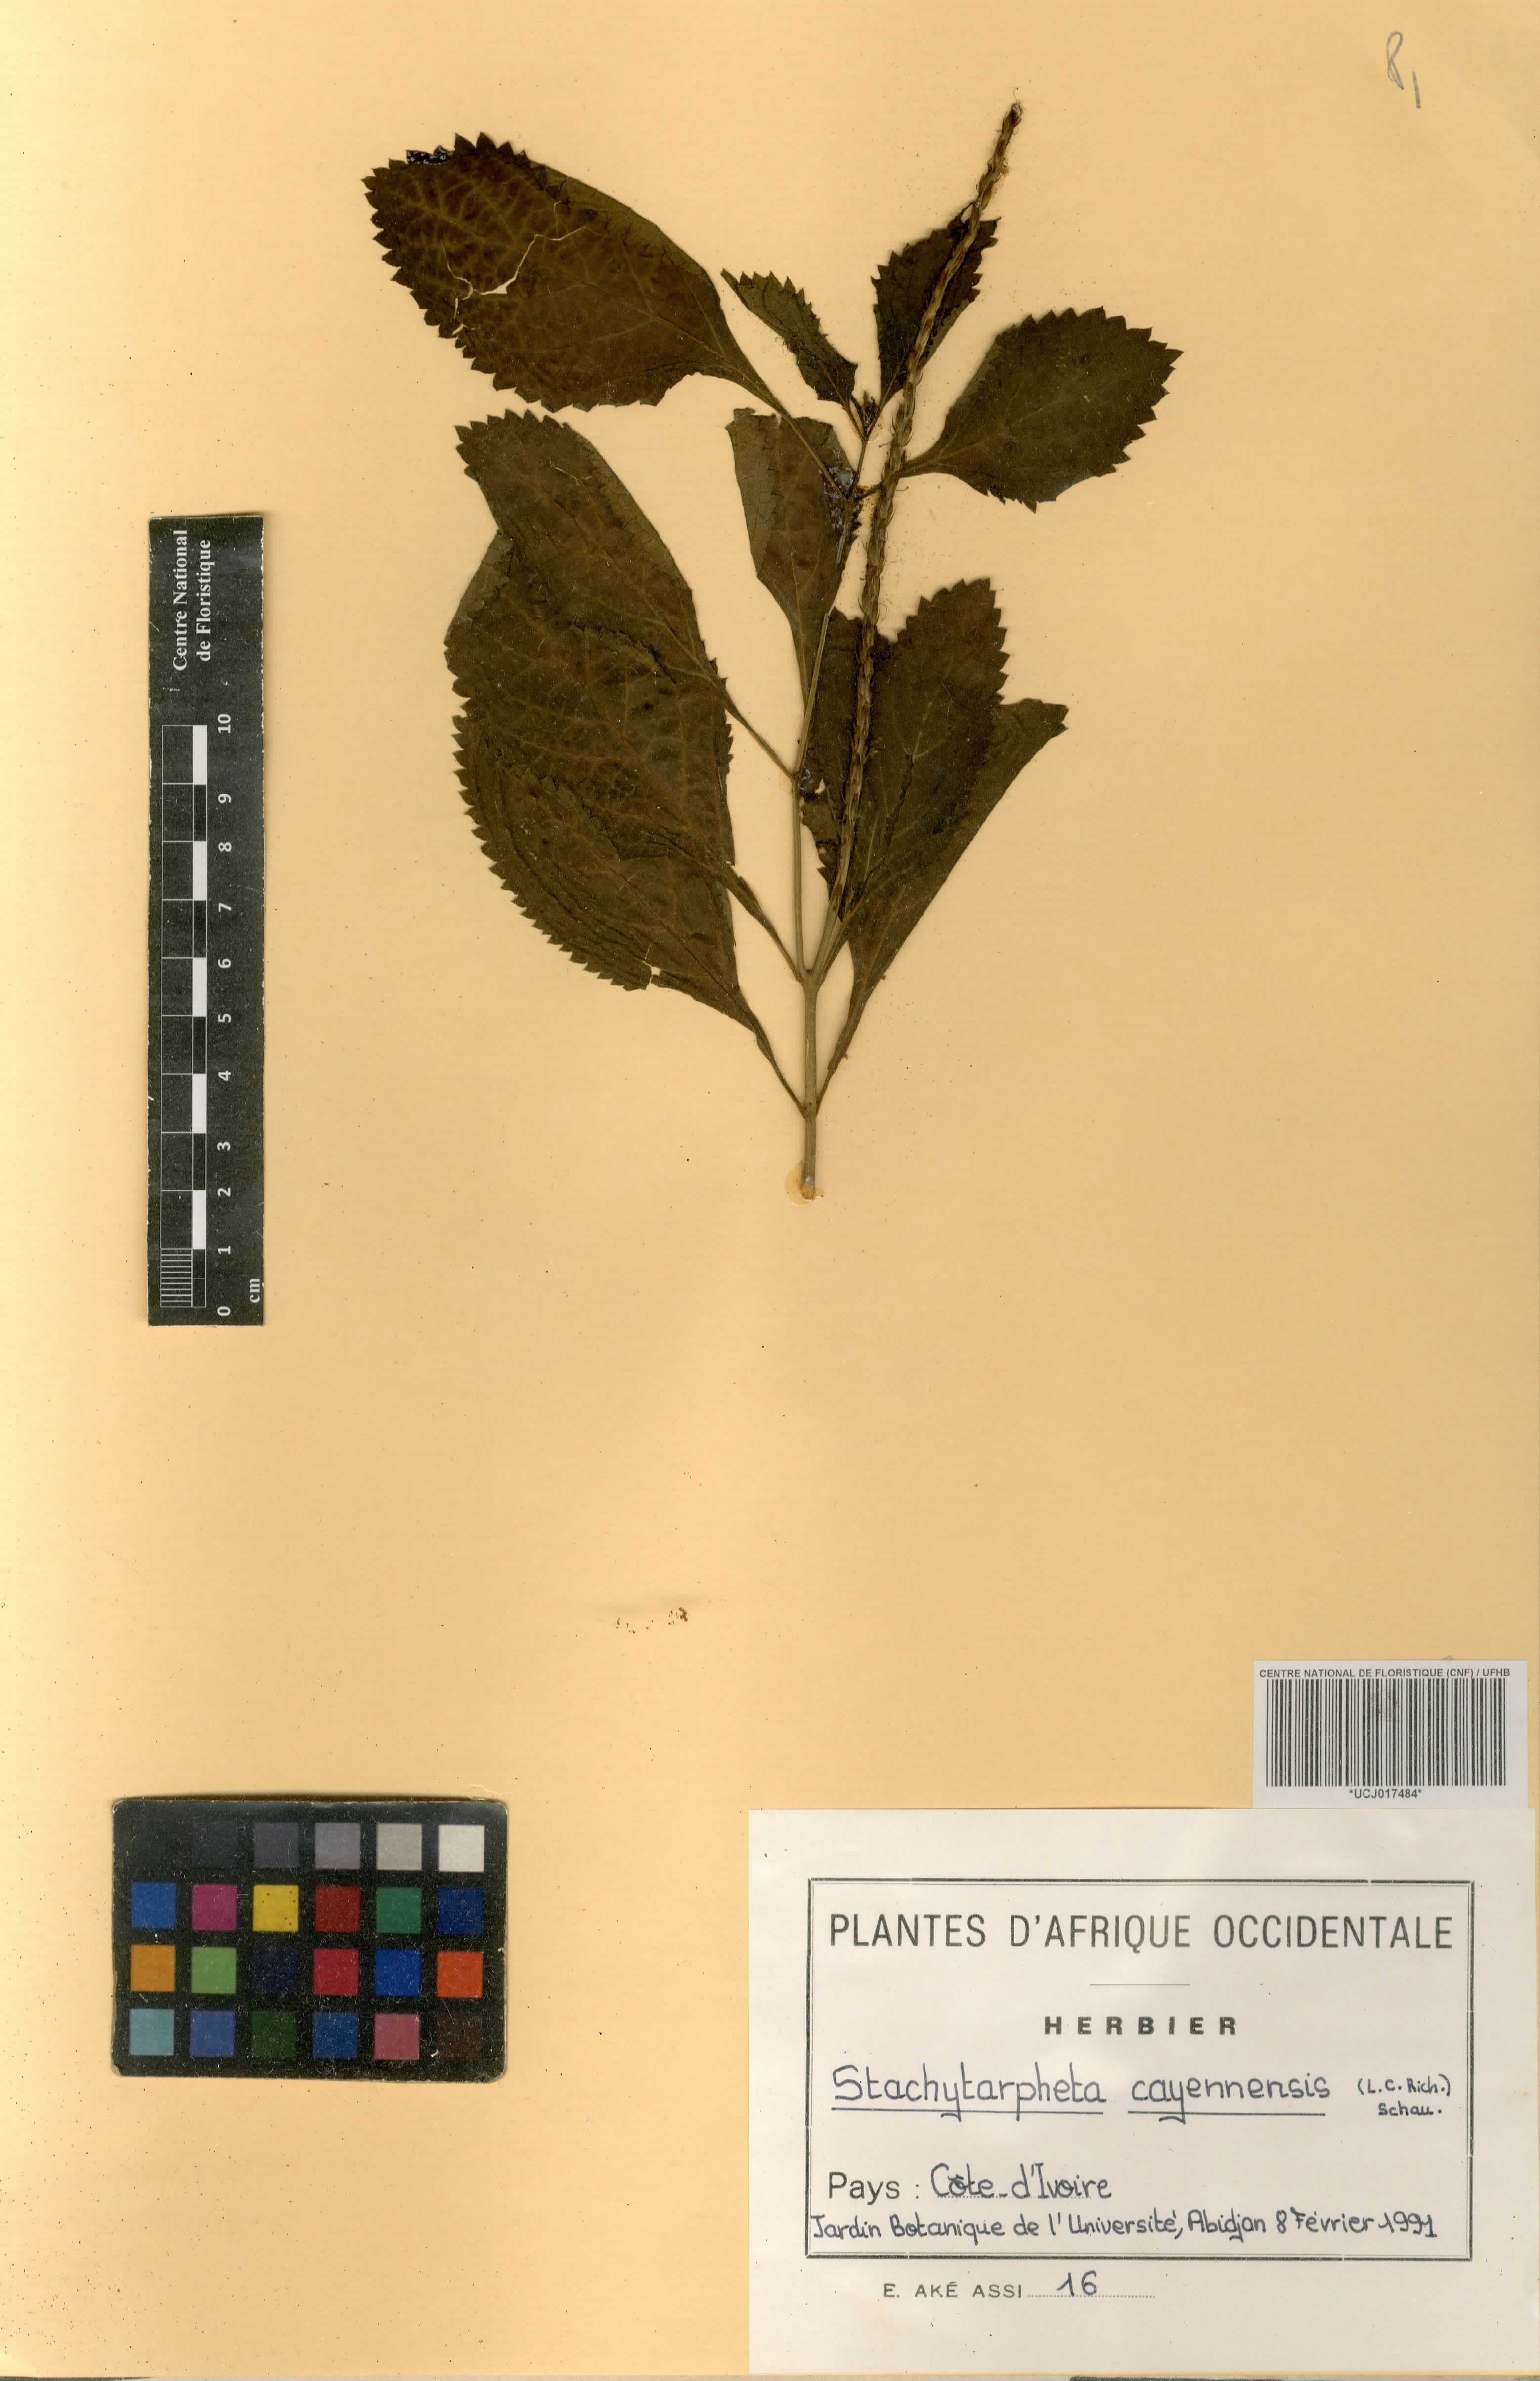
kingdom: Plantae
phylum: Tracheophyta
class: Magnoliopsida
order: Lamiales
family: Verbenaceae
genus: Stachytarpheta
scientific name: Stachytarpheta cayennensis
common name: Cayenne porterweed
